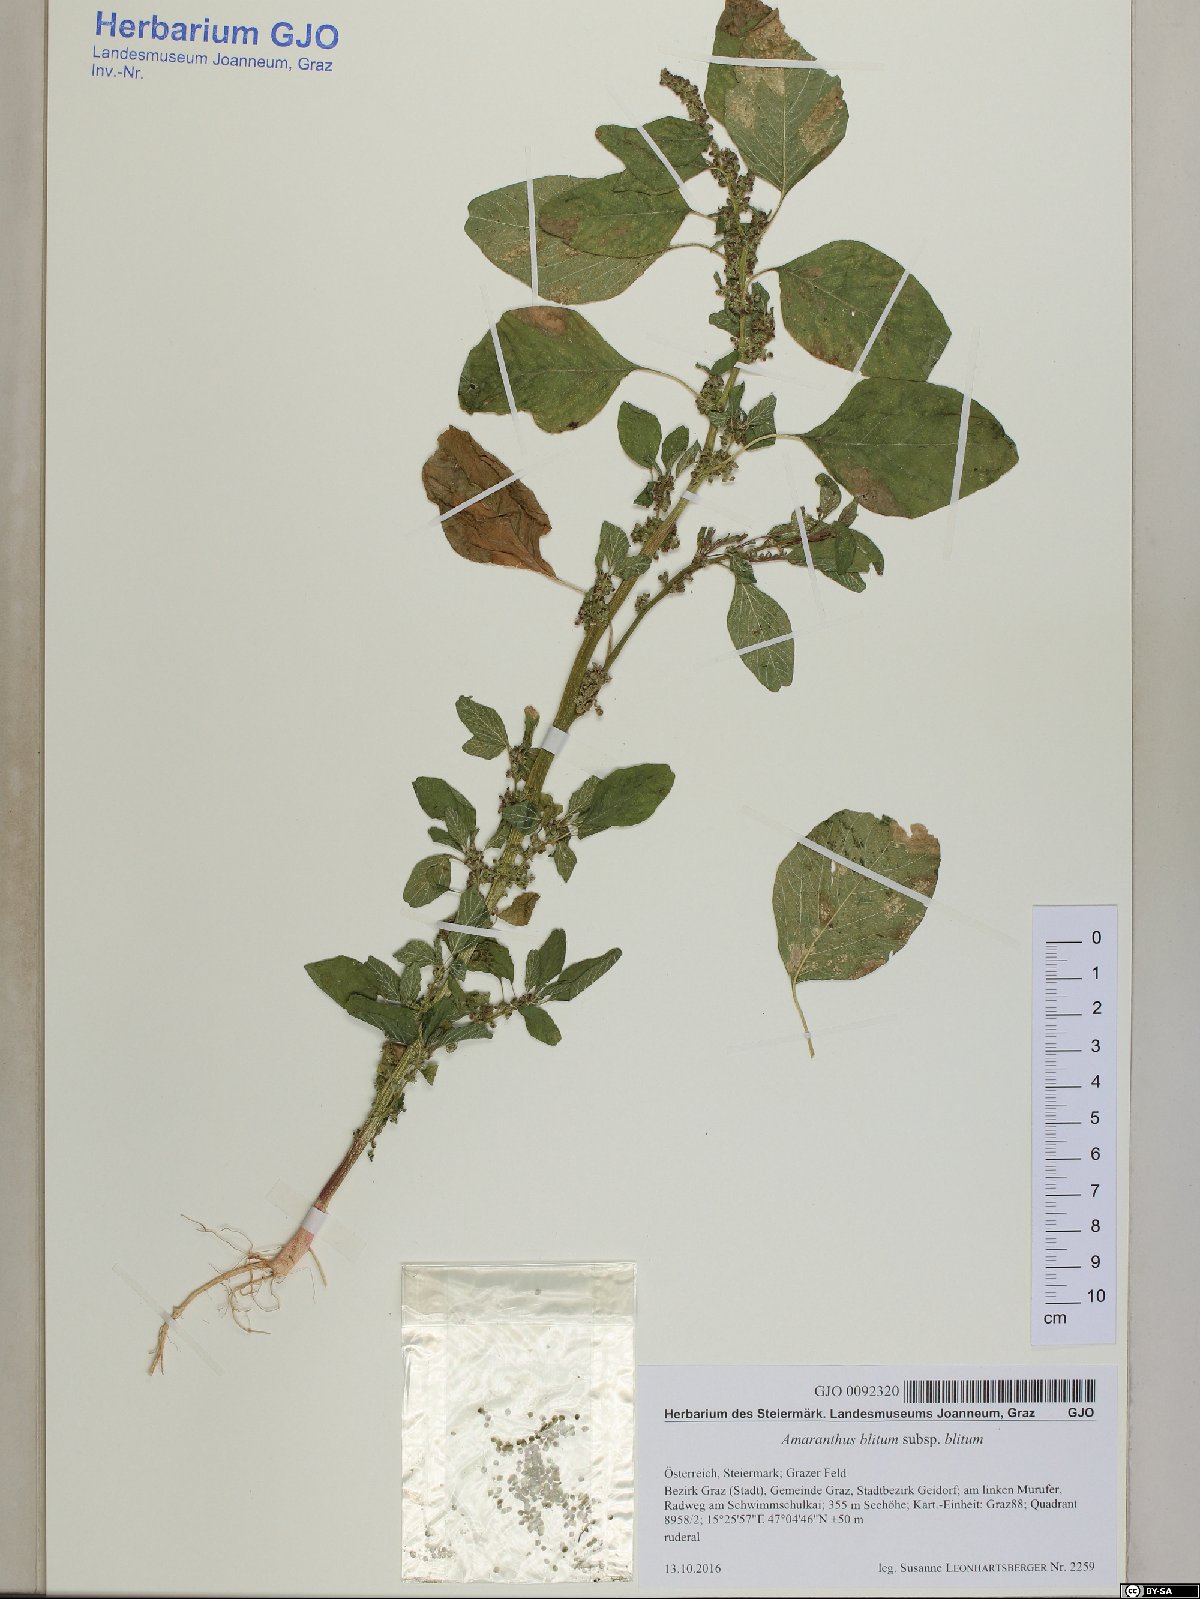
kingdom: Plantae
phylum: Tracheophyta
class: Magnoliopsida
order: Caryophyllales
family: Amaranthaceae
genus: Amaranthus
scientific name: Amaranthus blitum
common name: Purple amaranth
